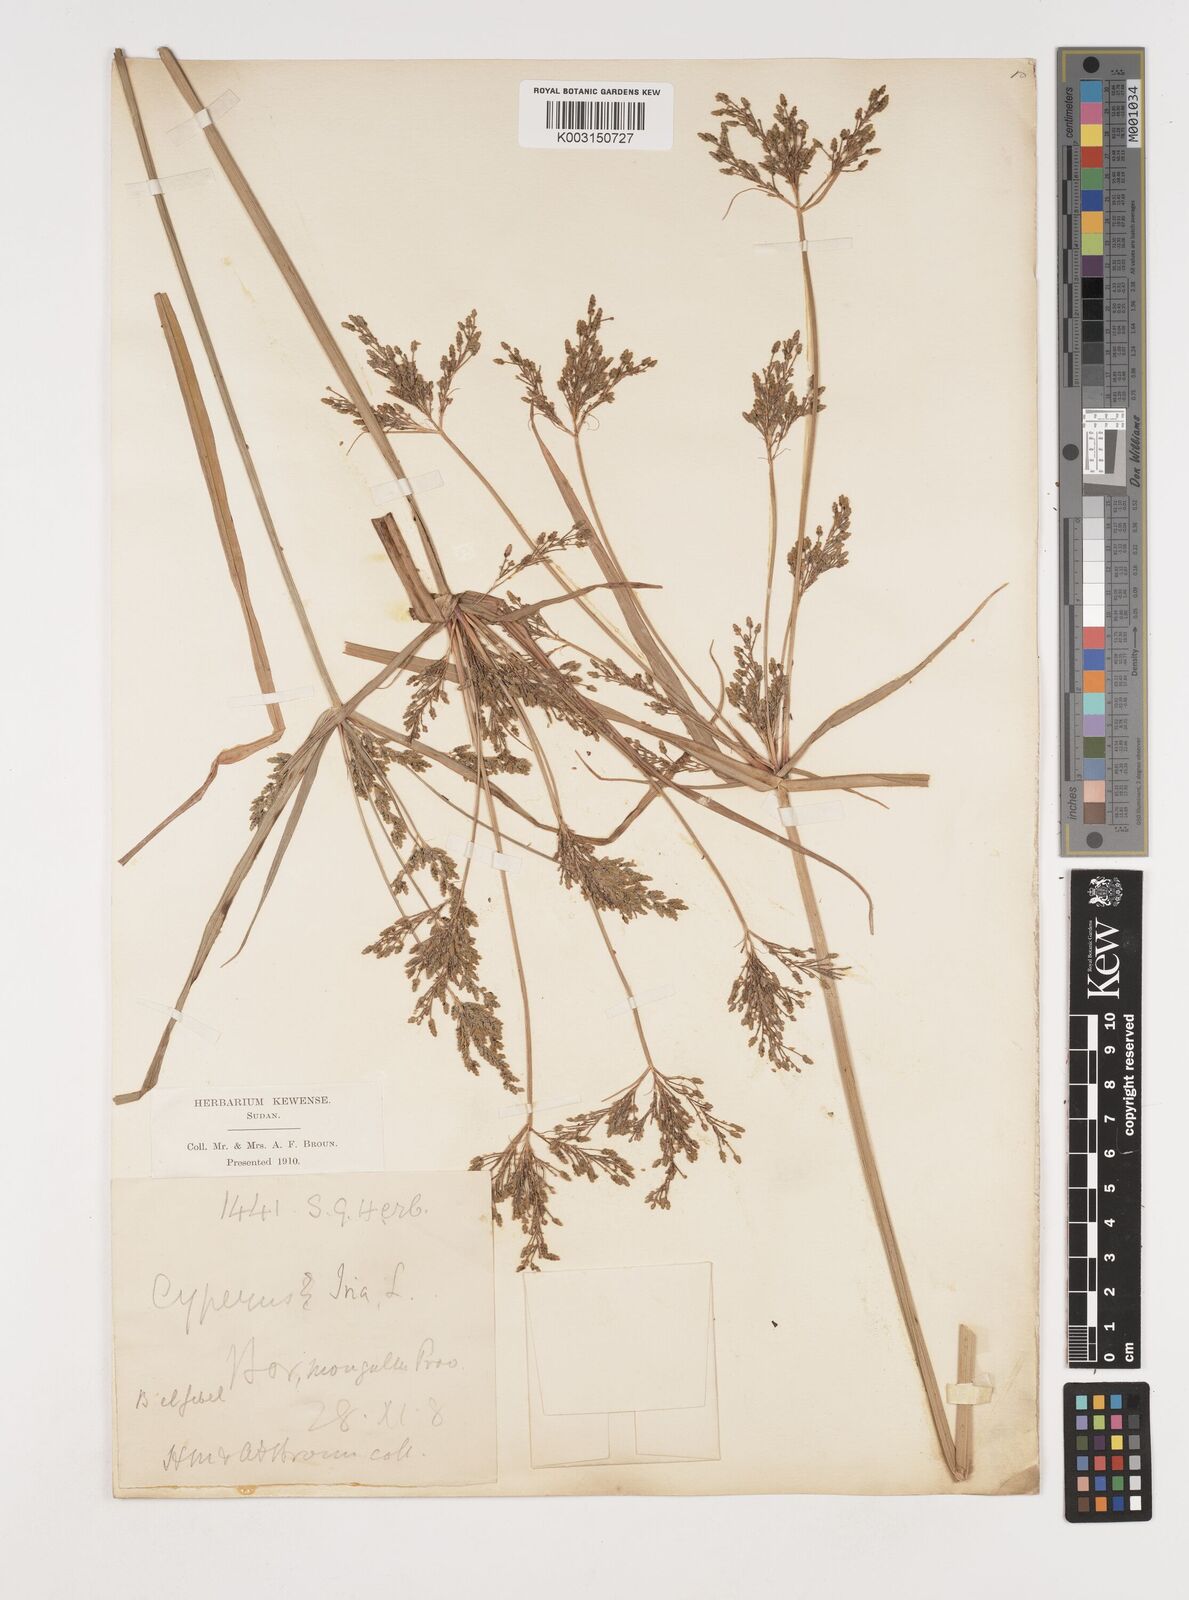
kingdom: Plantae
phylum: Tracheophyta
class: Liliopsida
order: Poales
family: Cyperaceae
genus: Cyperus
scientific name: Cyperus iria
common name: Ricefield flatsedge
